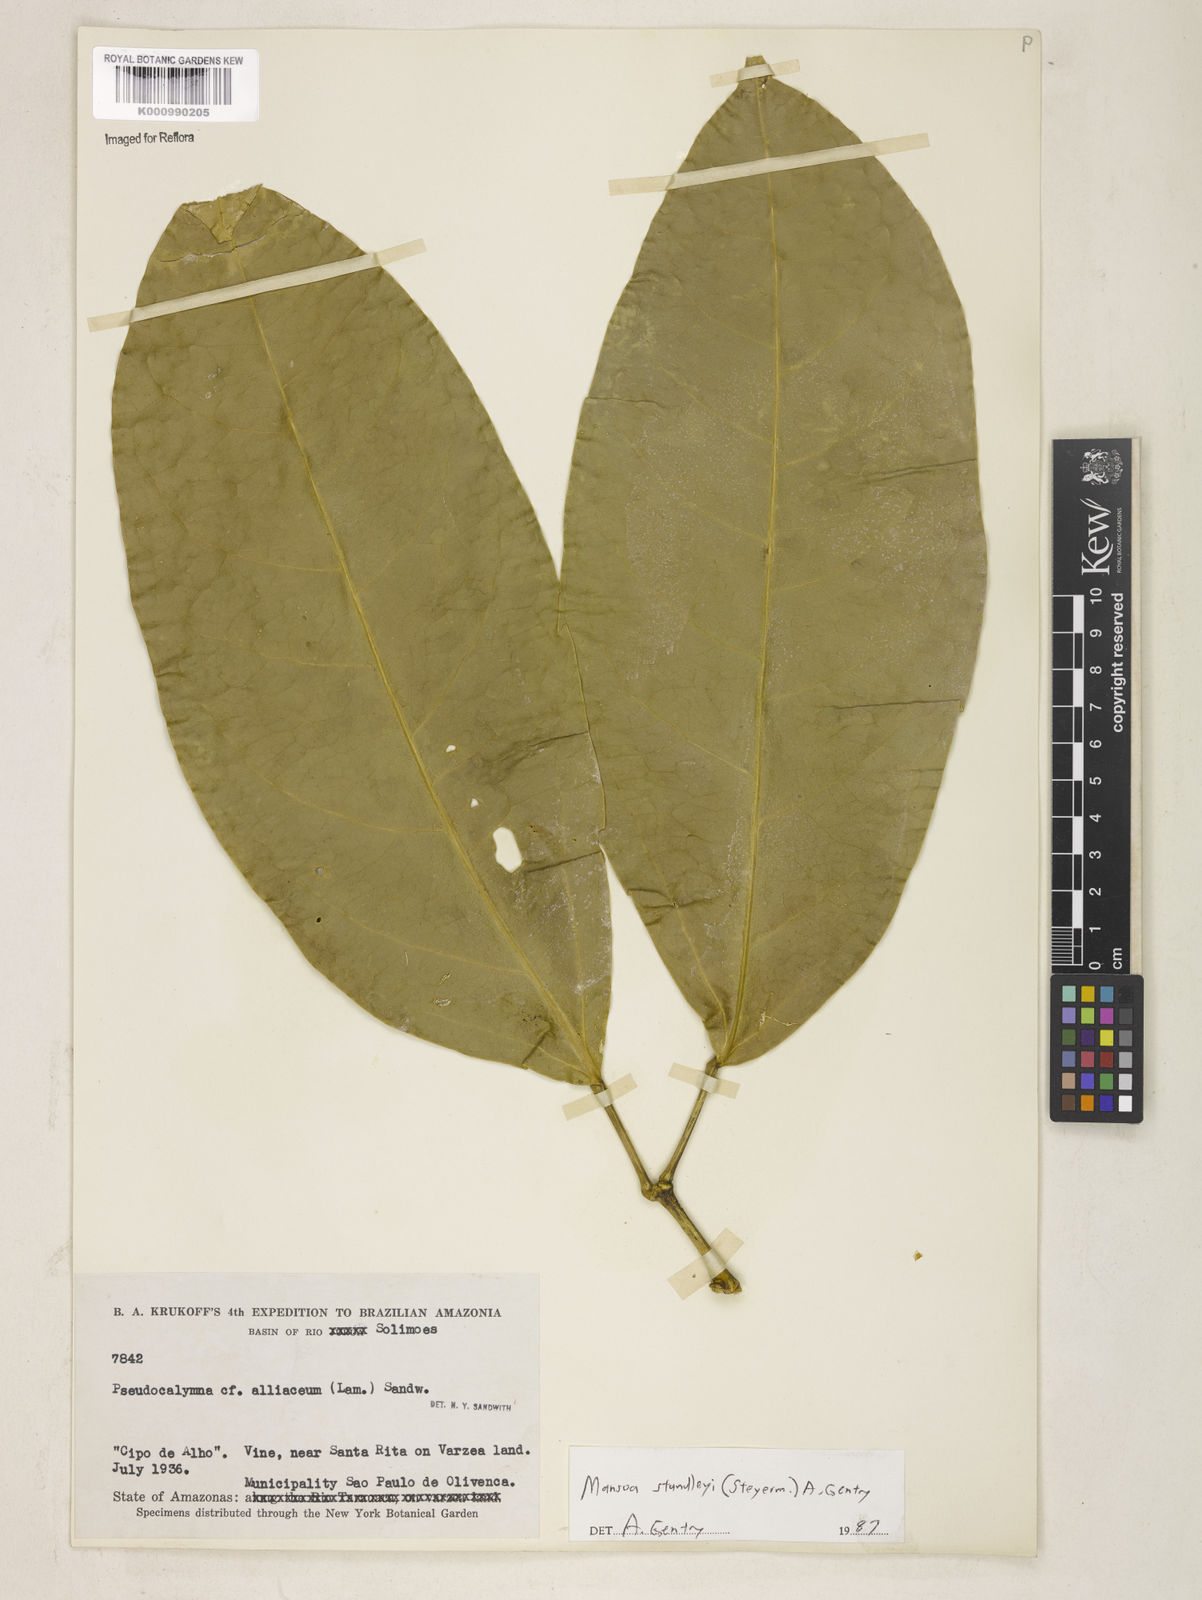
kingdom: Plantae
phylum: Tracheophyta
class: Magnoliopsida
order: Lamiales
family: Bignoniaceae
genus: Mansoa
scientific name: Mansoa standleyi
